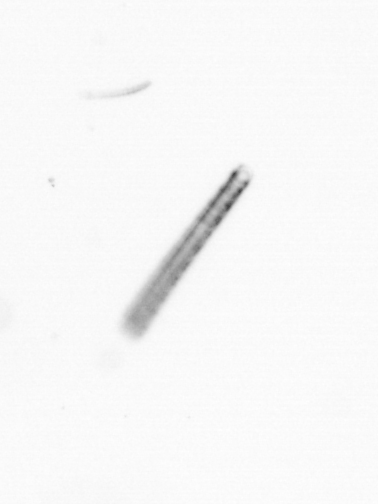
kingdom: Chromista
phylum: Ochrophyta
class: Bacillariophyceae
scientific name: Bacillariophyceae
